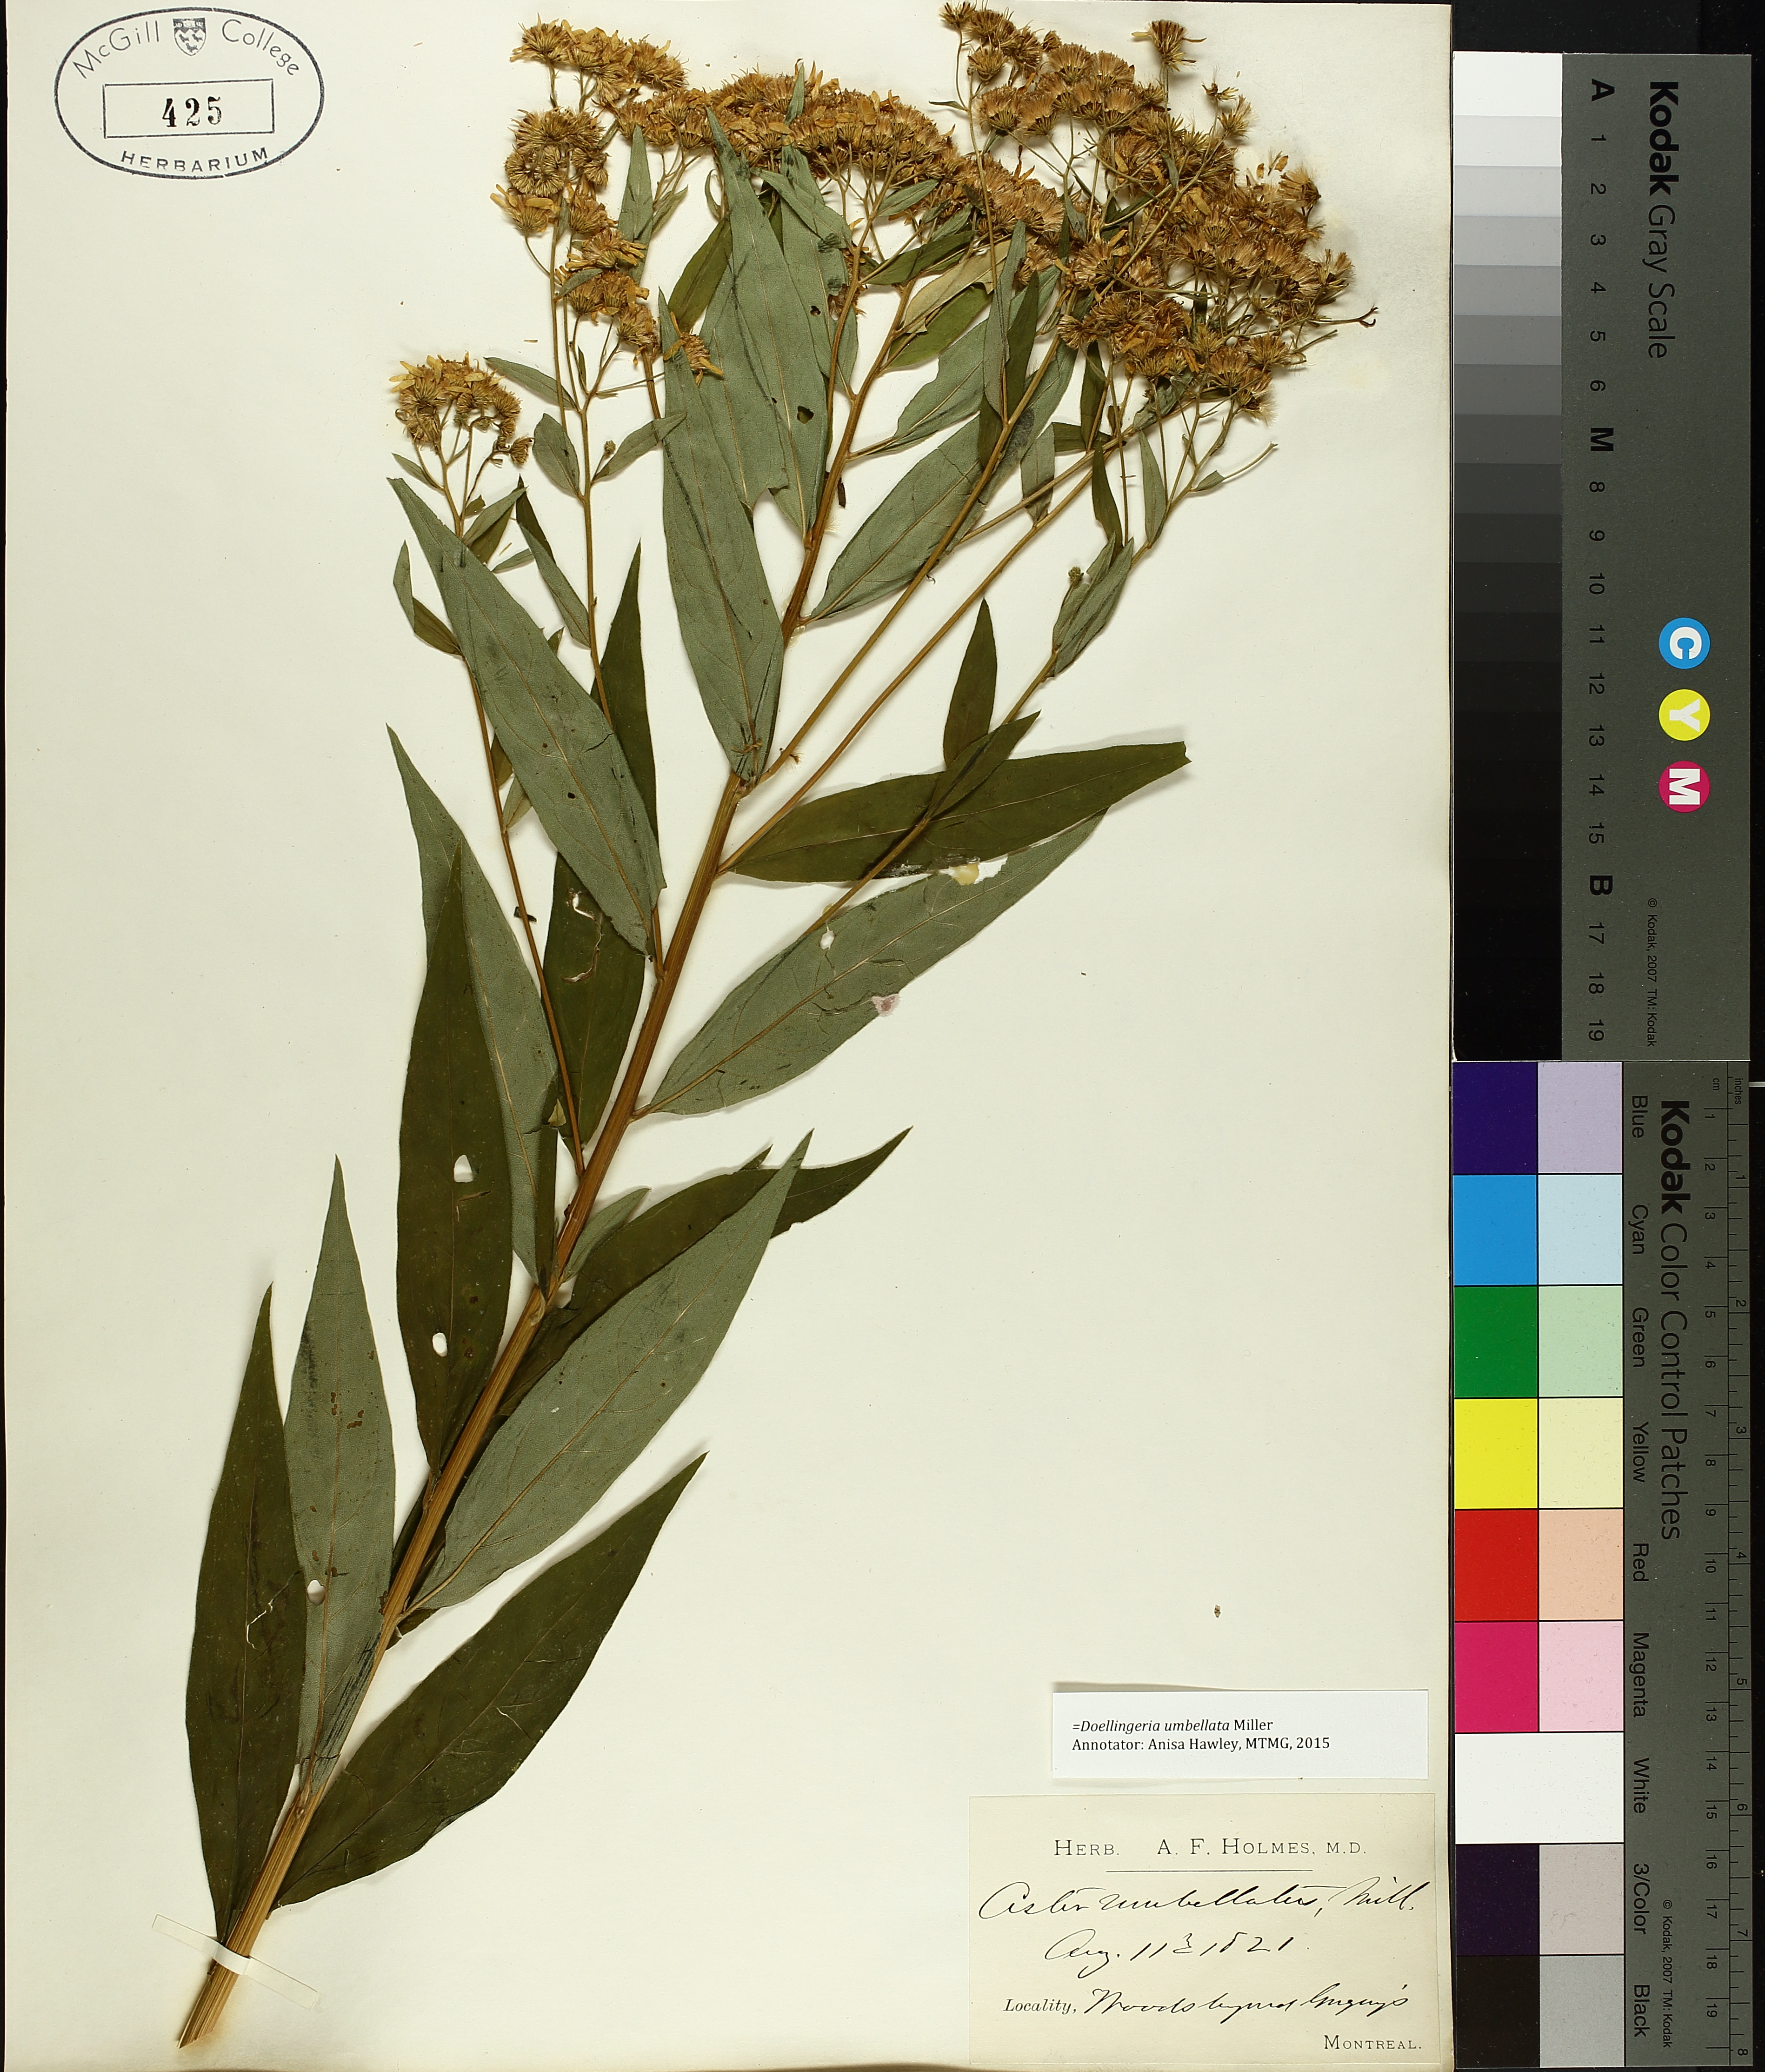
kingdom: Plantae
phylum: Tracheophyta
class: Magnoliopsida
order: Asterales
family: Asteraceae
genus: Symphyotrichum
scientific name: Symphyotrichum lateriflorum
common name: Calico aster
